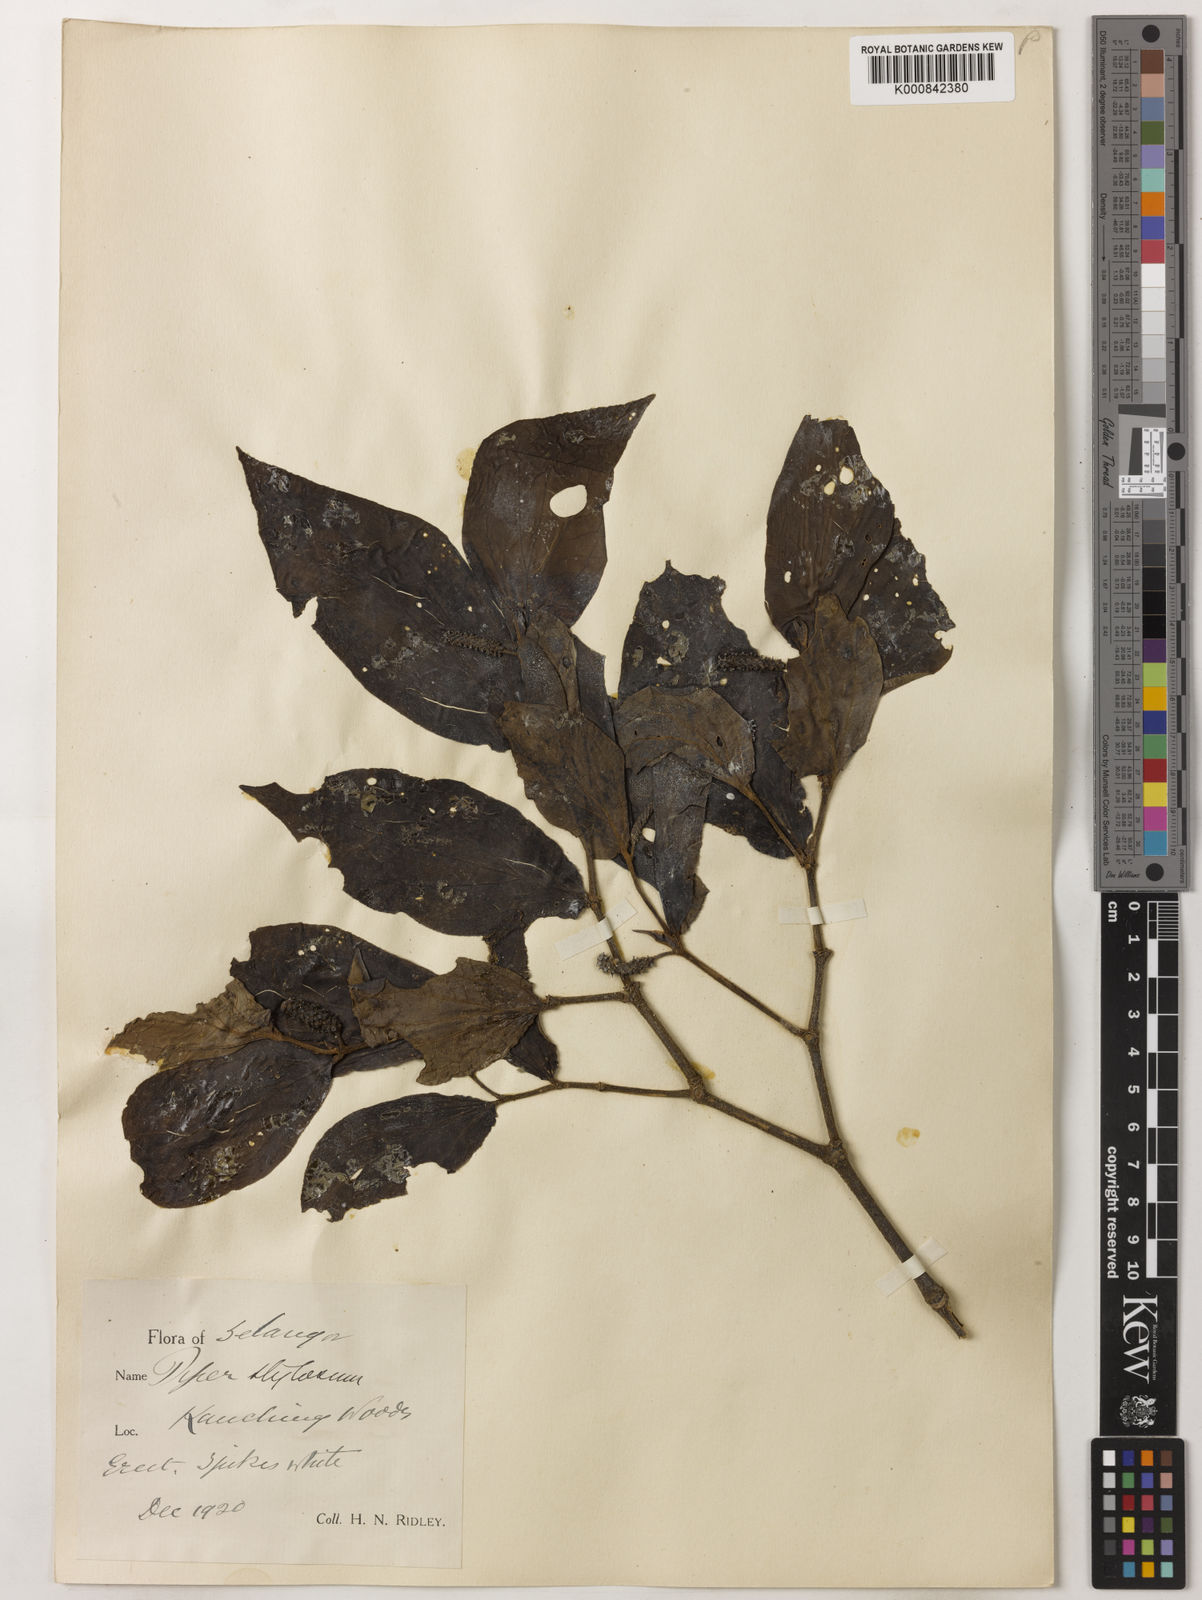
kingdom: Plantae
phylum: Tracheophyta
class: Magnoliopsida
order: Piperales
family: Piperaceae
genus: Piper
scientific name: Piper rostratum
